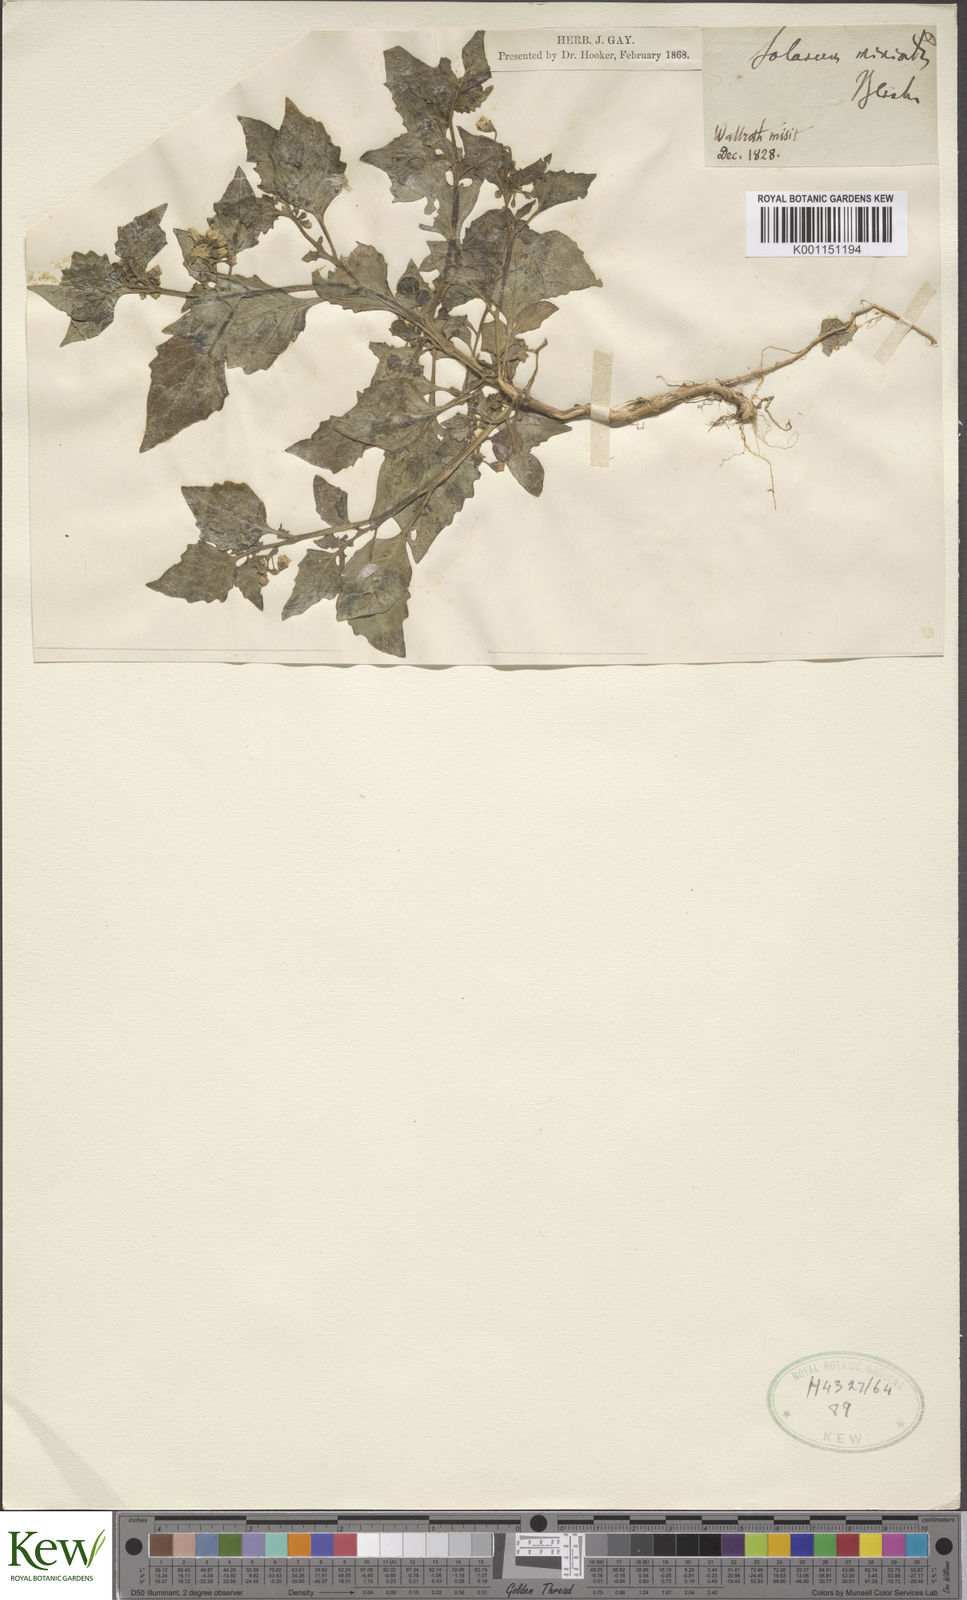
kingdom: Plantae
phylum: Tracheophyta
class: Magnoliopsida
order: Solanales
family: Solanaceae
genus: Solanum
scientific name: Solanum alatum
